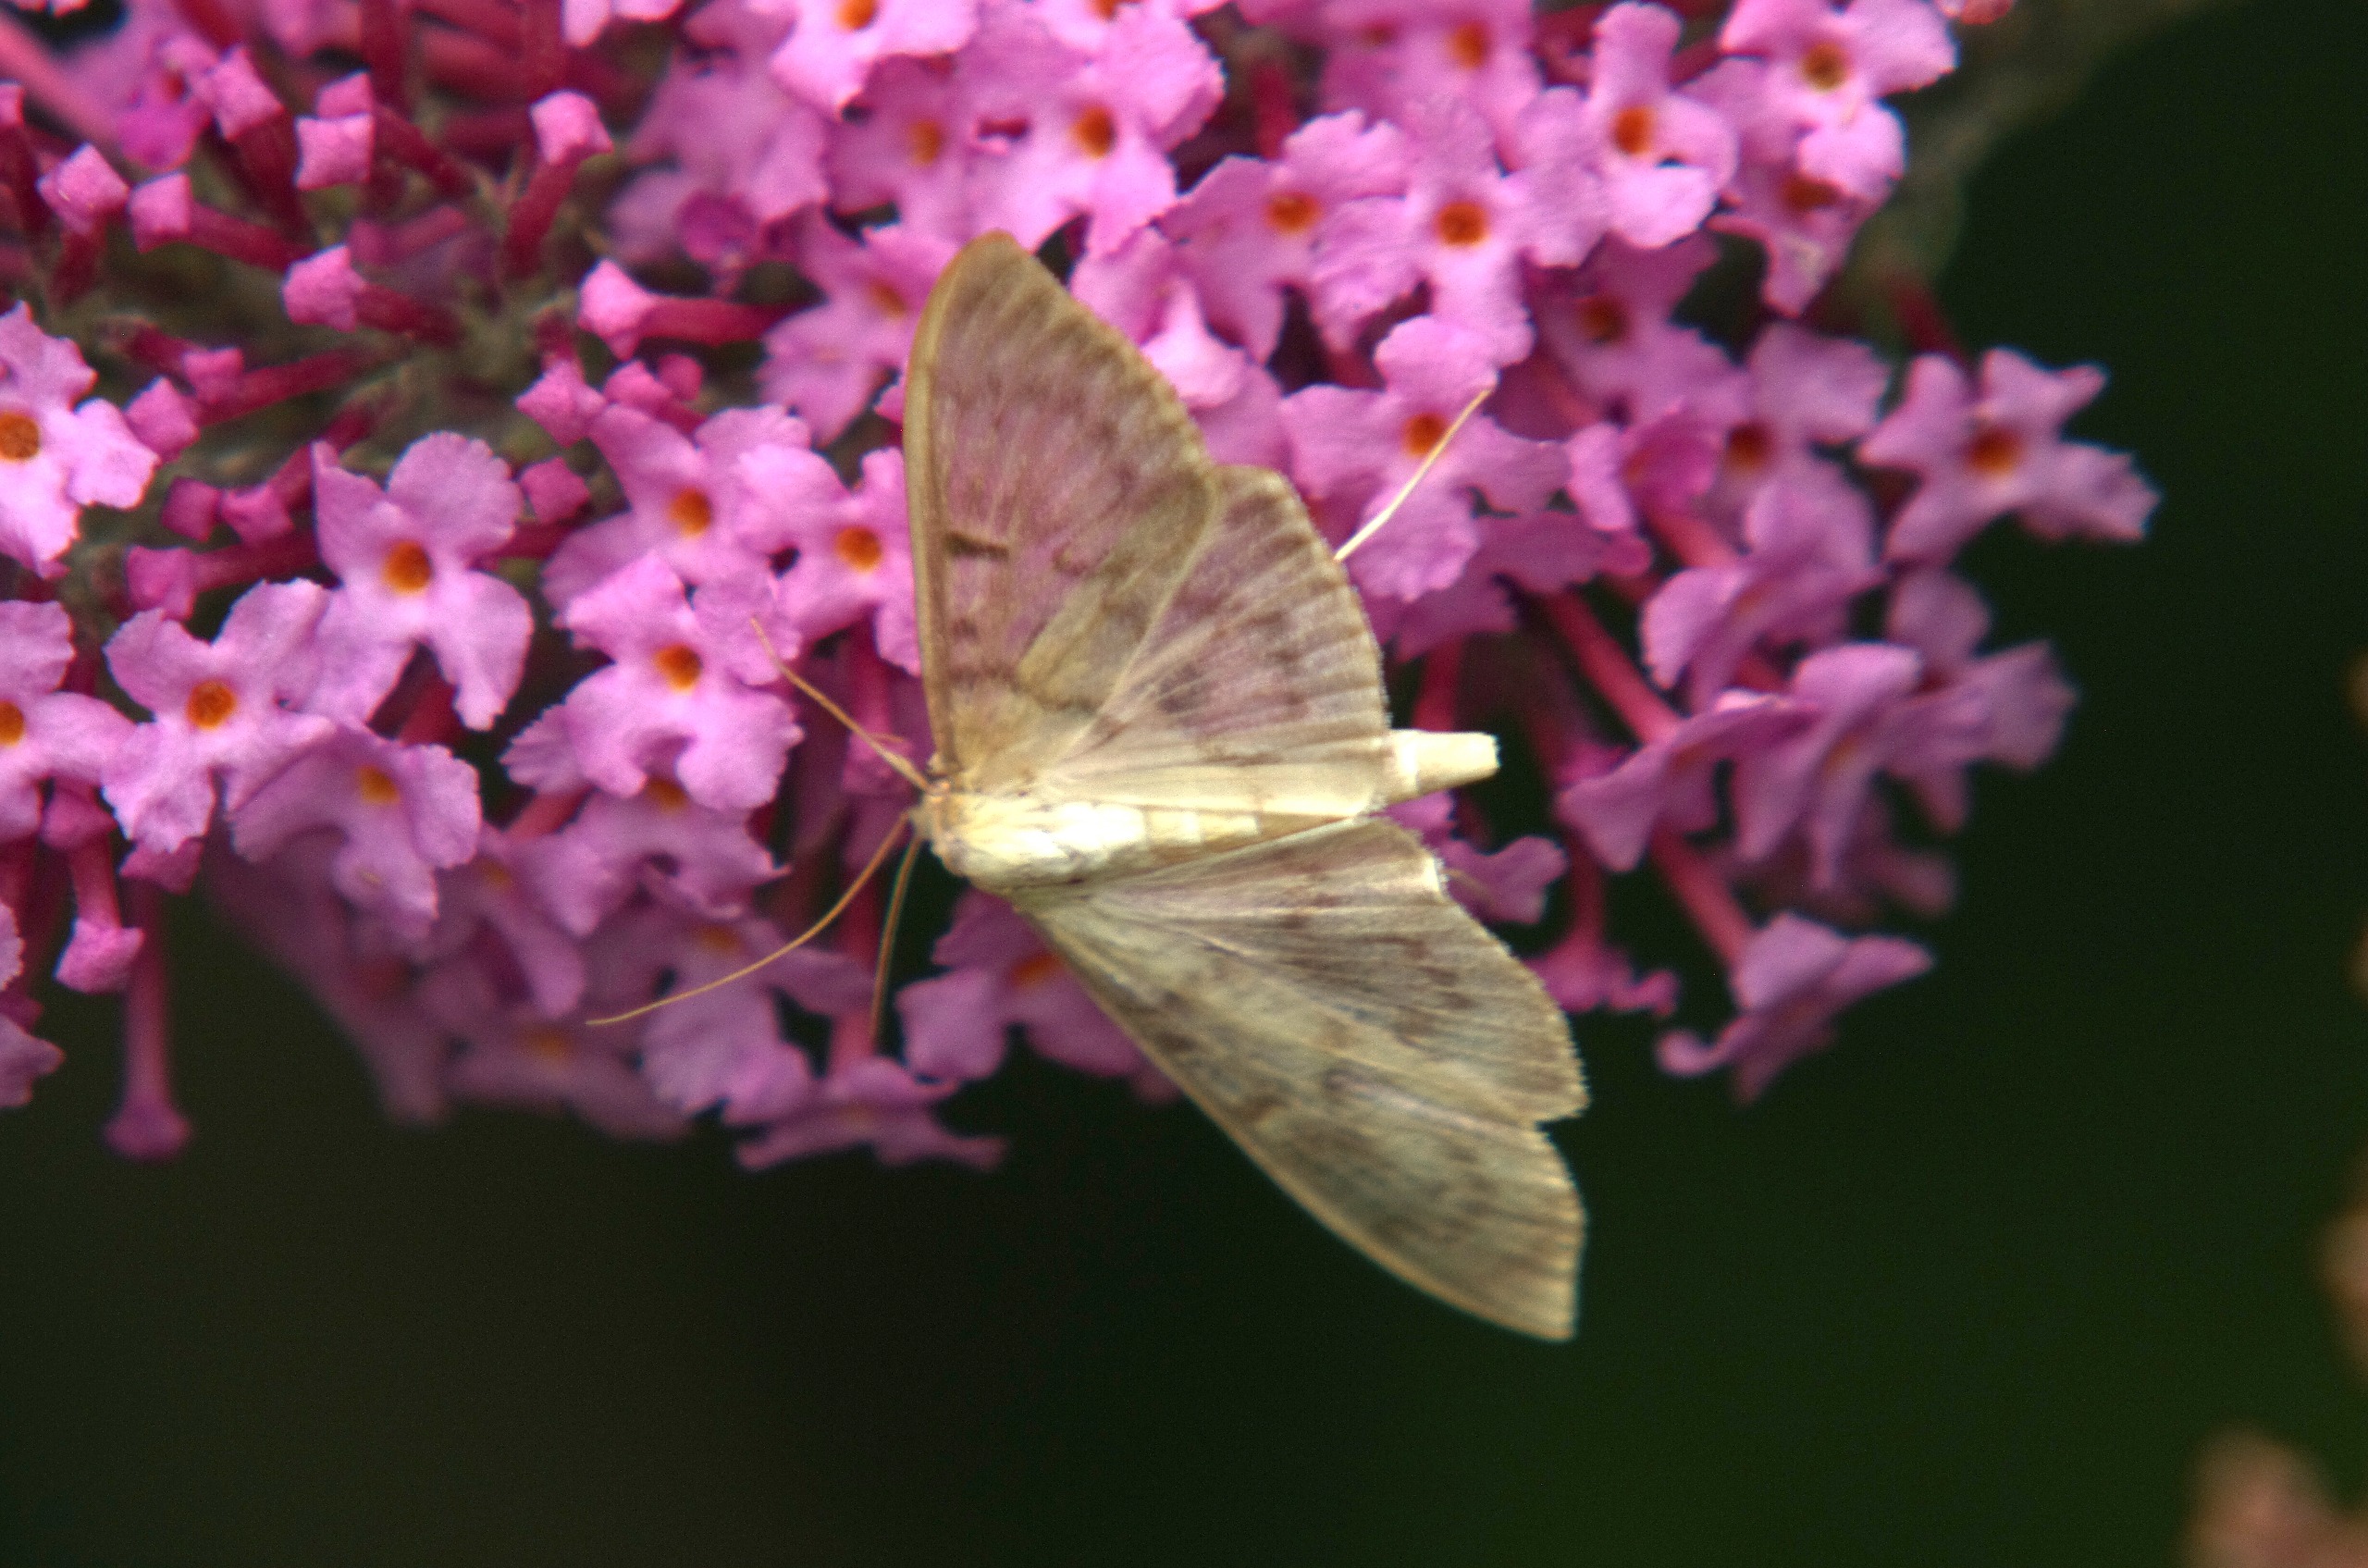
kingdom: Animalia
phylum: Arthropoda
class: Insecta
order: Lepidoptera
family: Crambidae
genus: Patania
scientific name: Patania ruralis
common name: Perlemorshalvmøl
